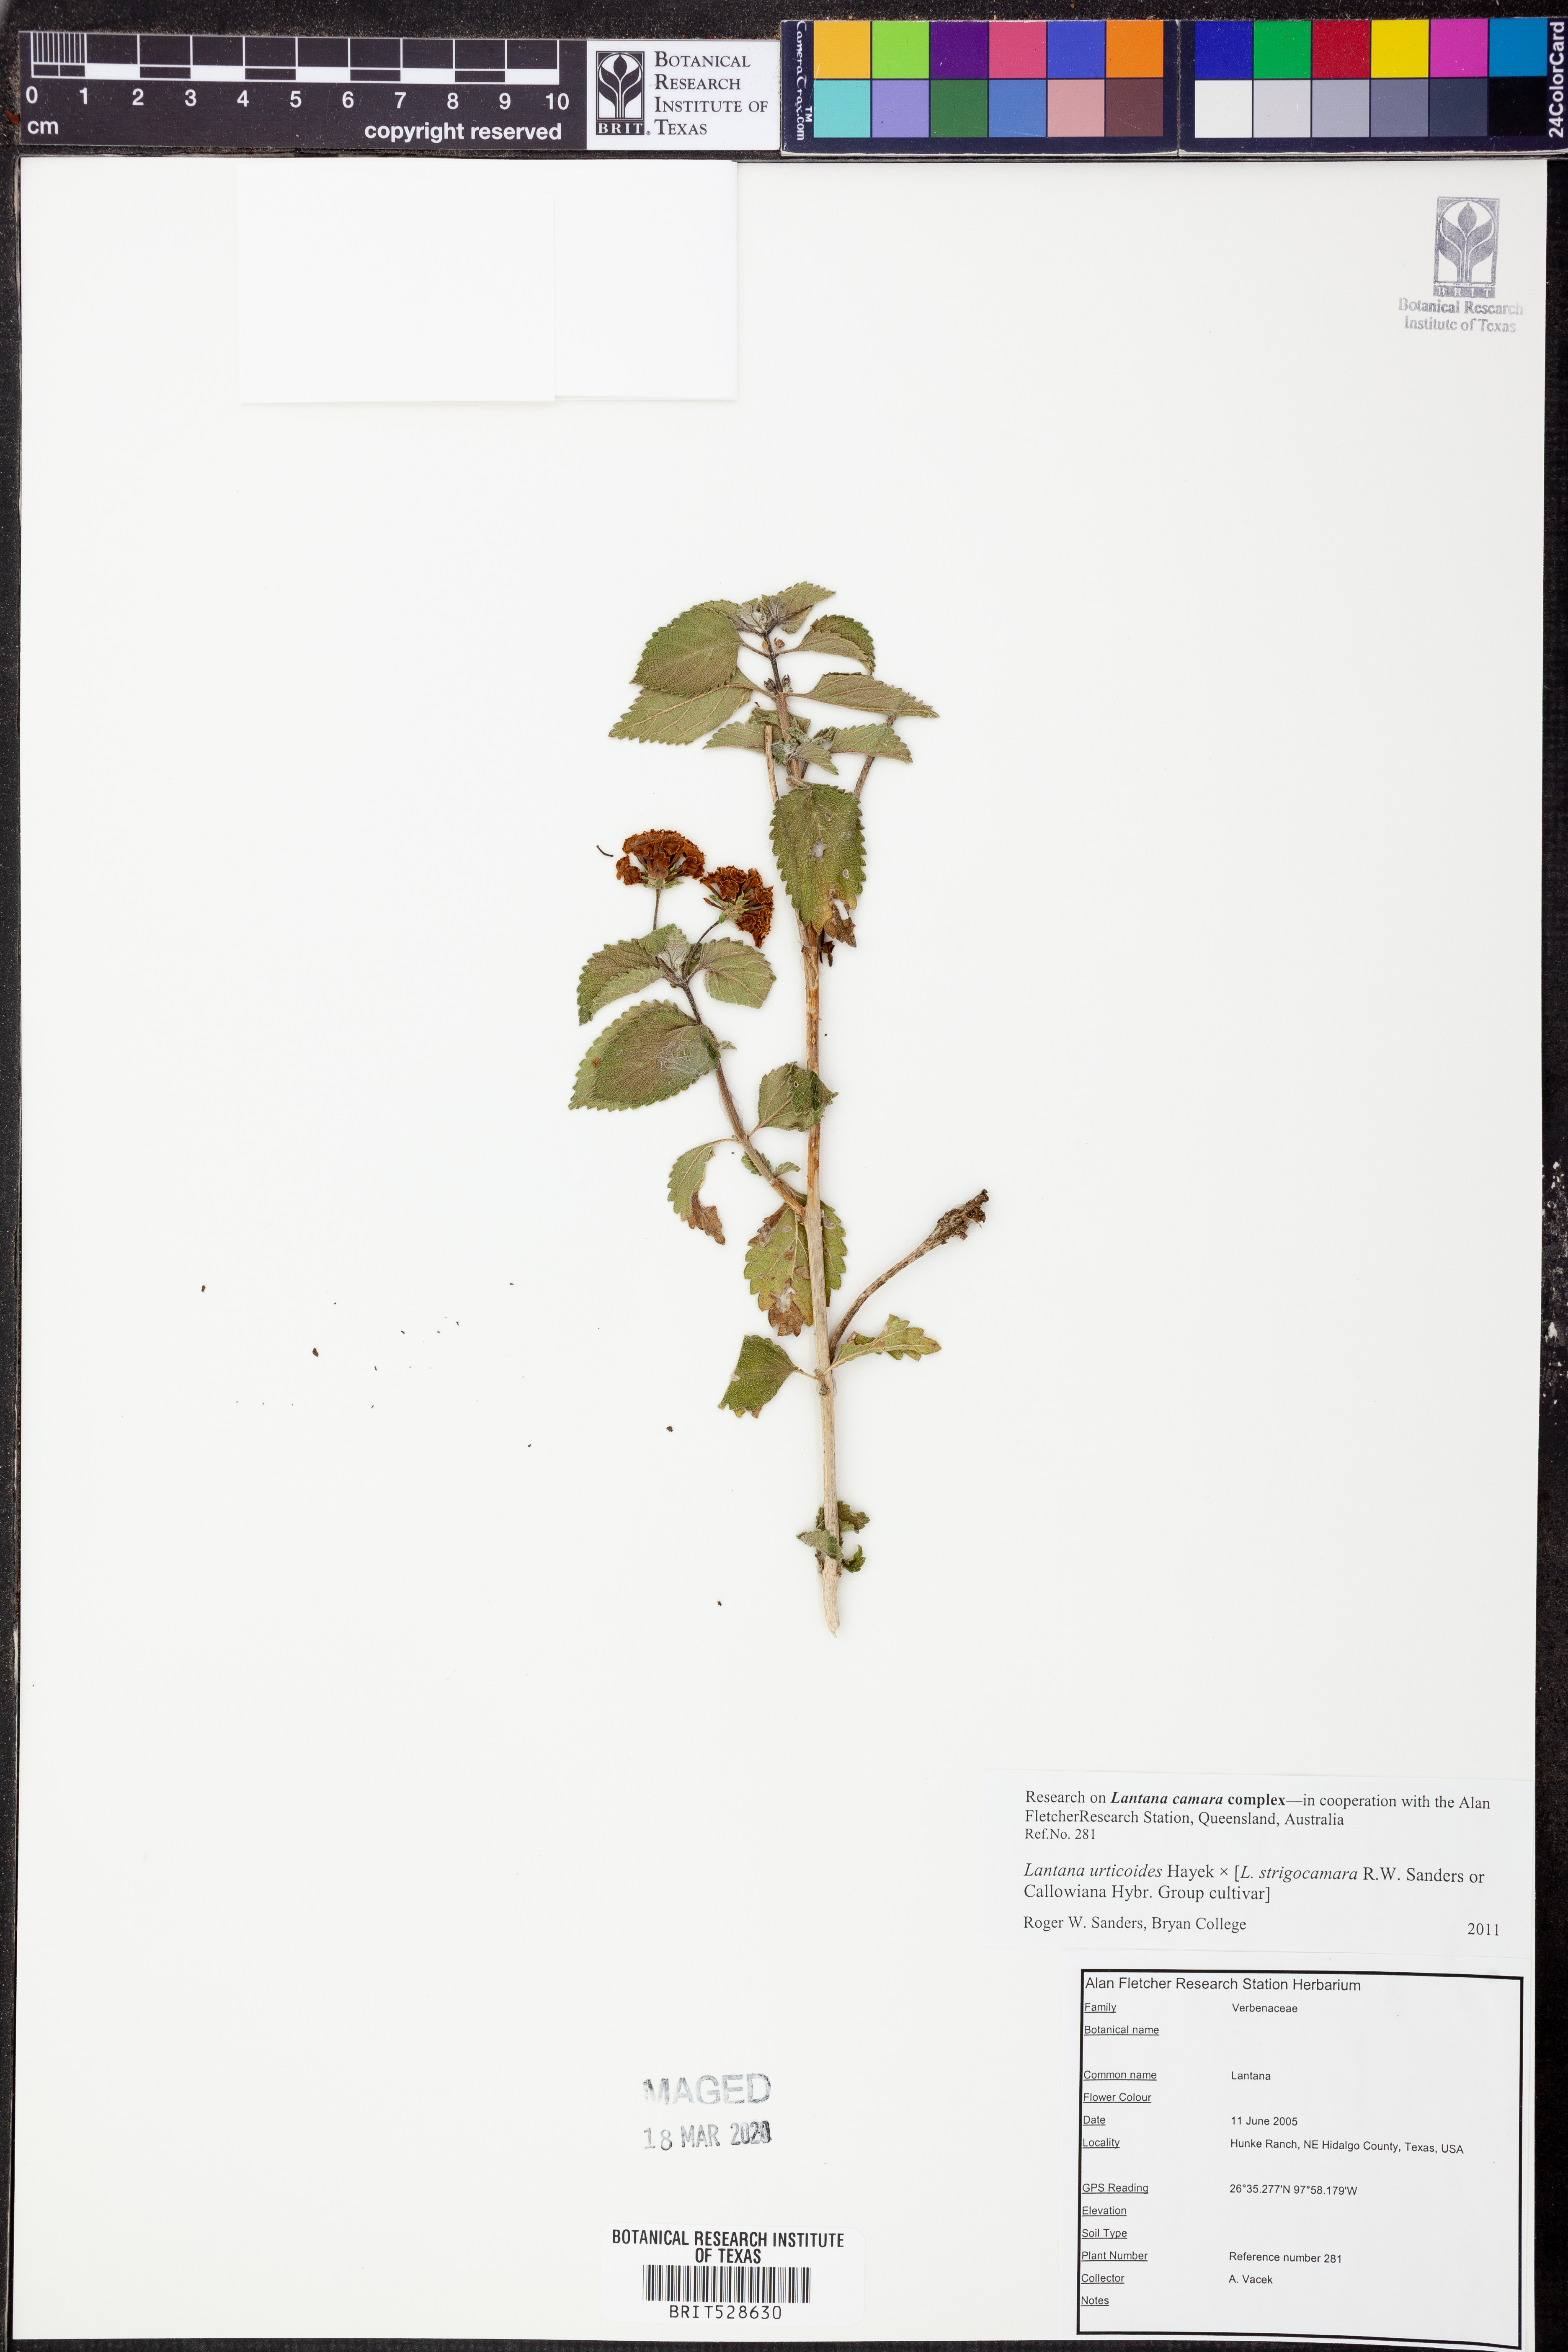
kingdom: Plantae
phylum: Tracheophyta
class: Magnoliopsida
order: Lamiales
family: Verbenaceae
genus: Lantana
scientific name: Lantana urticoides
